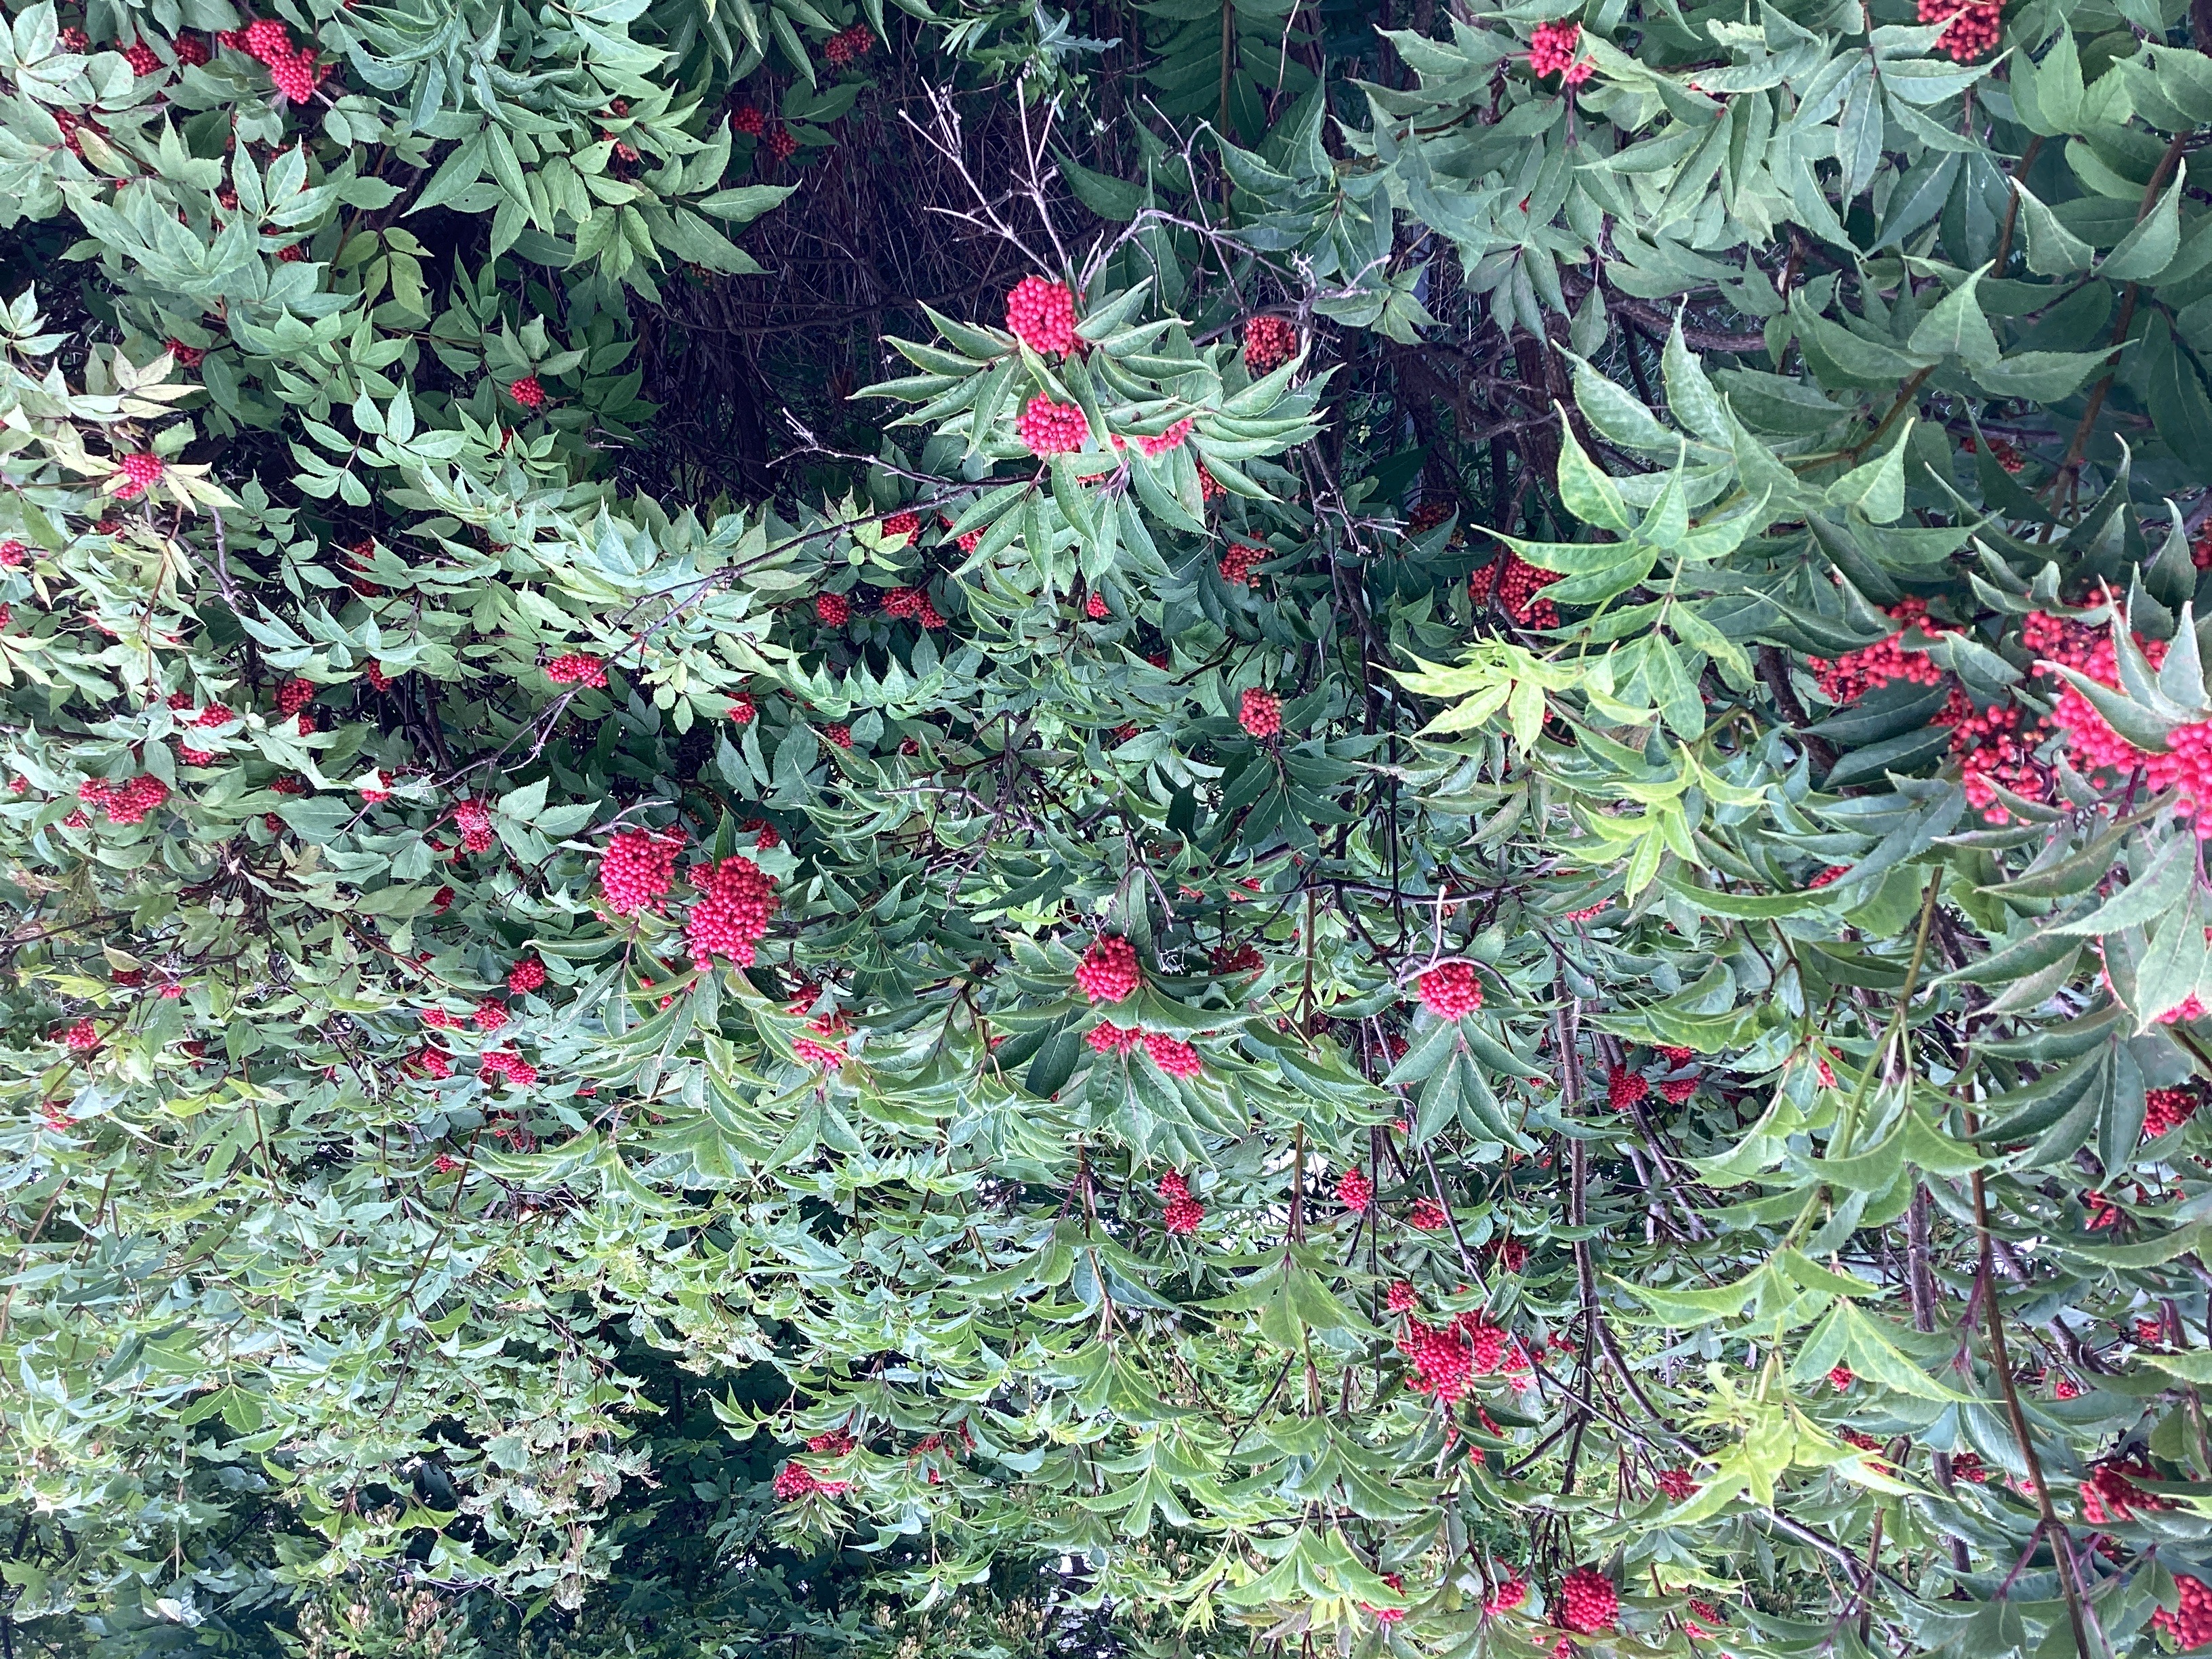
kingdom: Plantae
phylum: Tracheophyta
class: Magnoliopsida
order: Dipsacales
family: Viburnaceae
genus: Sambucus
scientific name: Sambucus racemosa
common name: rødhyll
